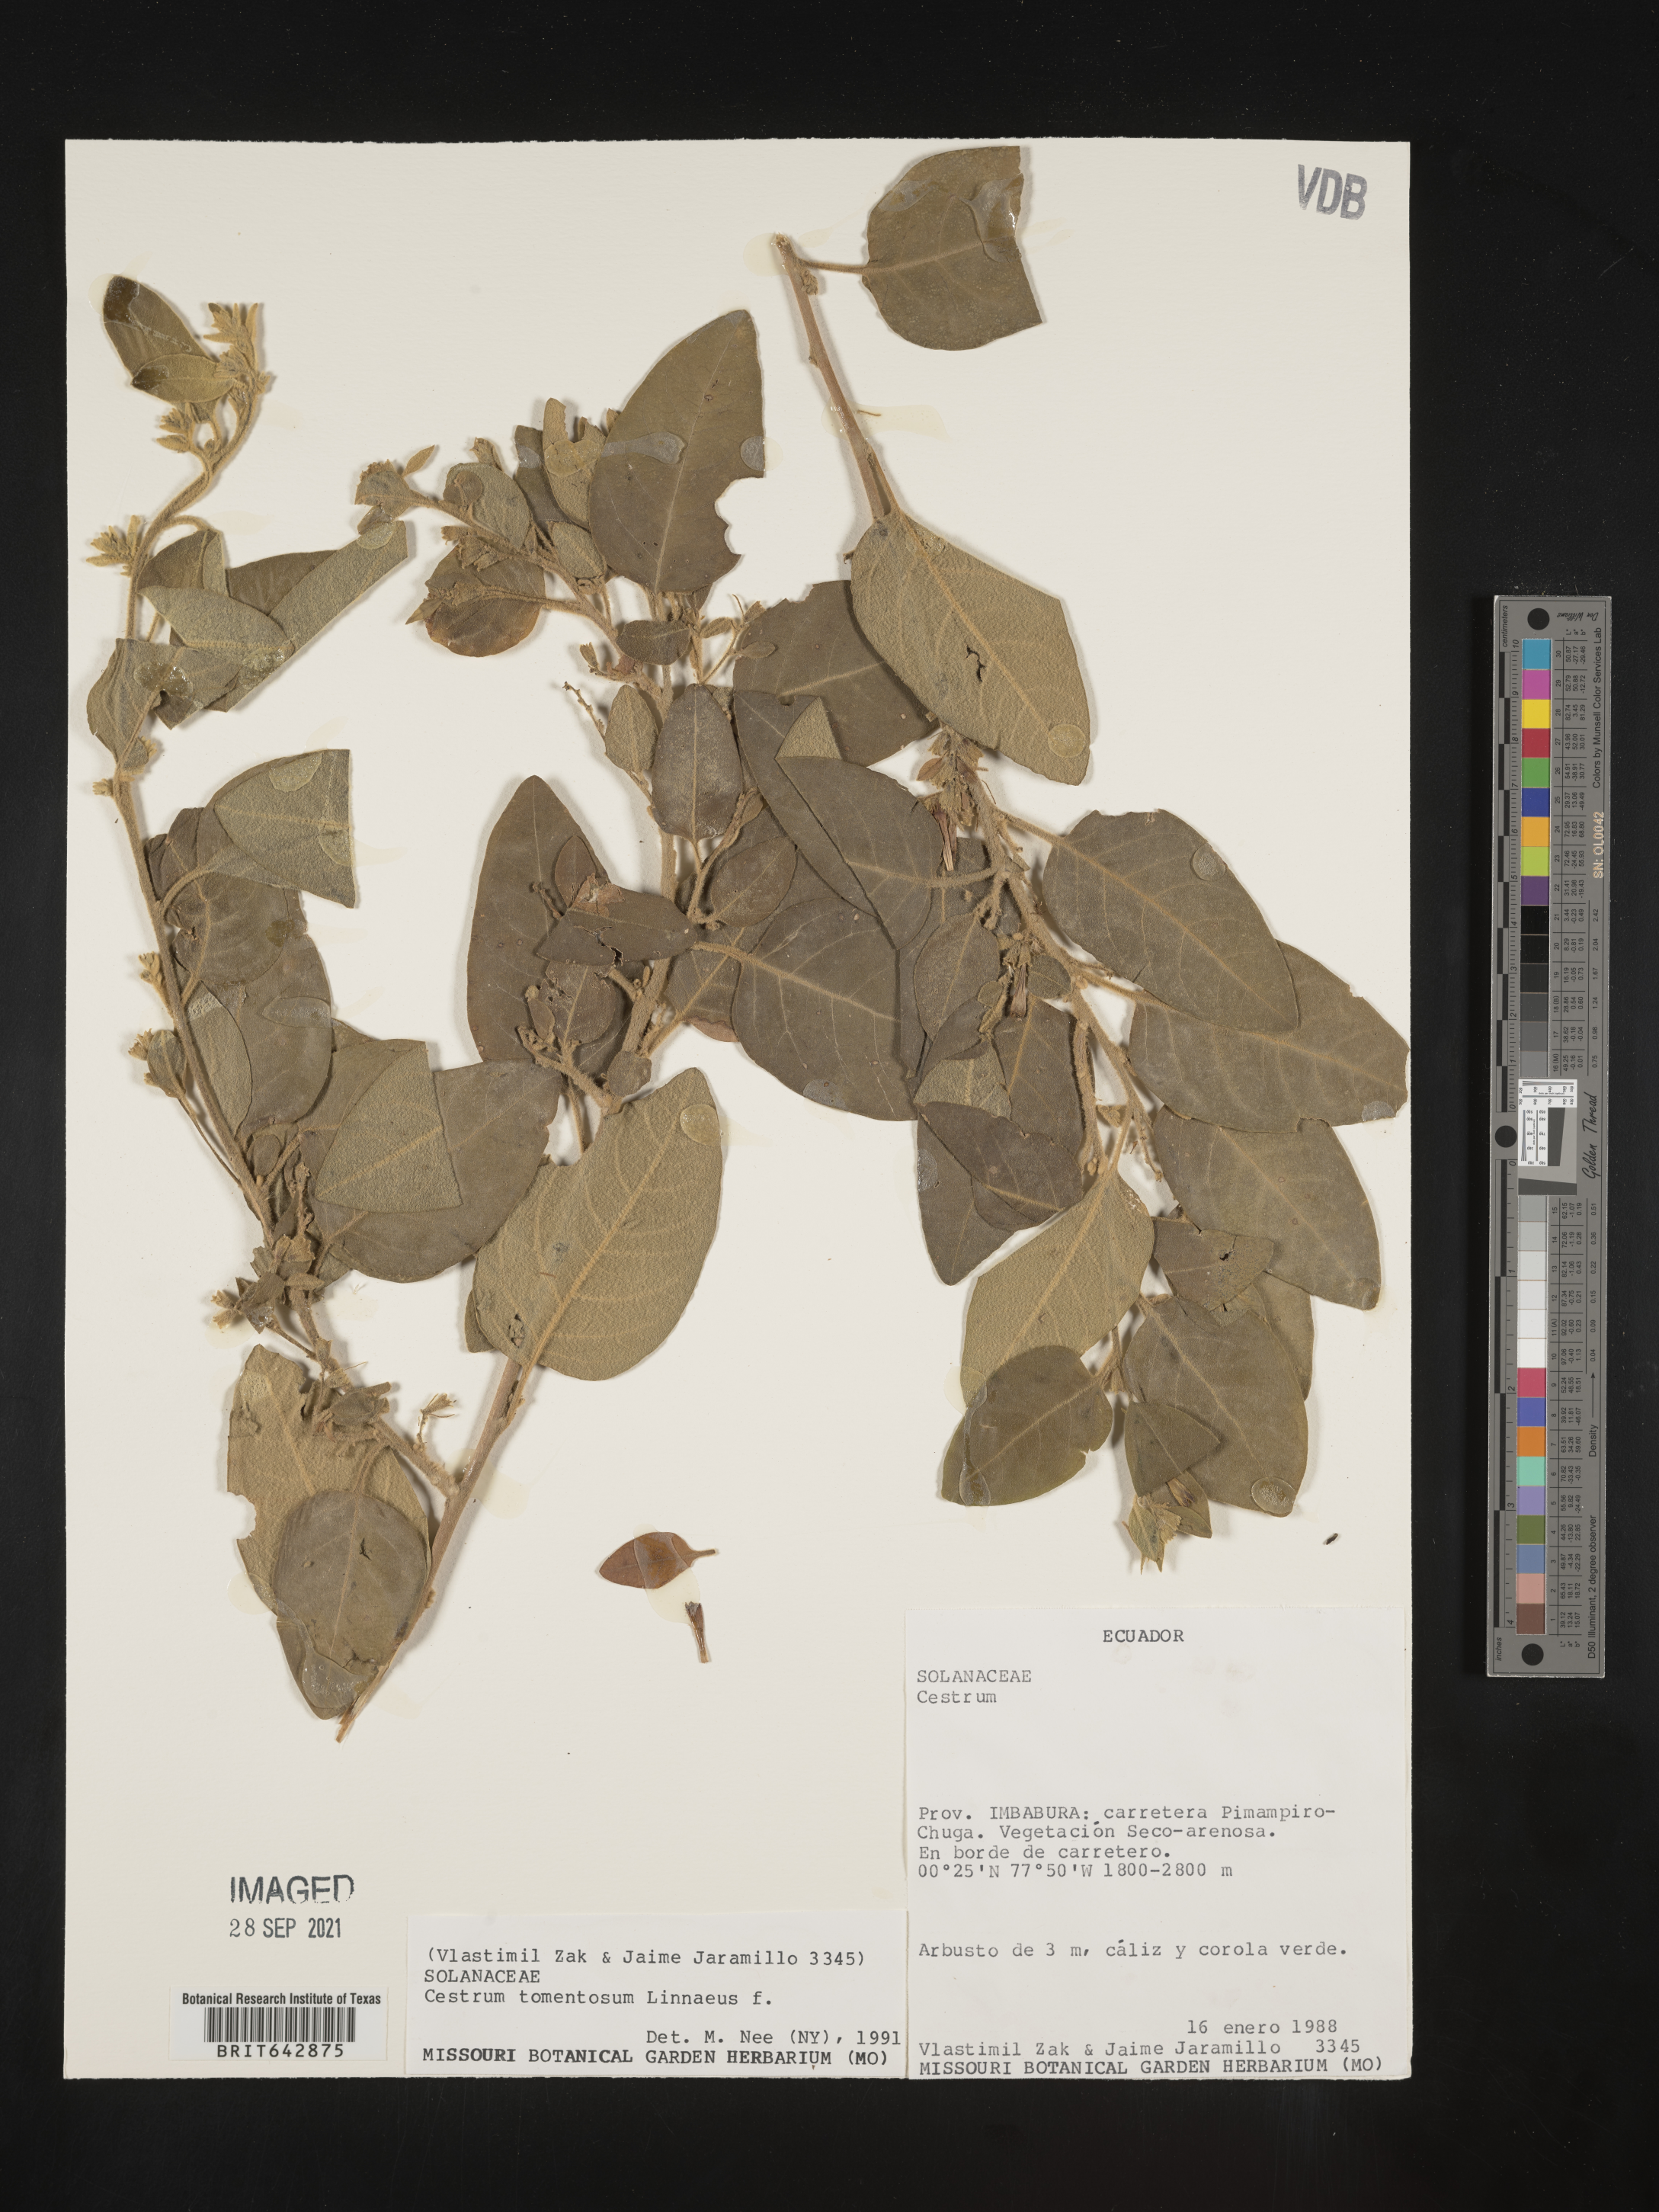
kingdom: Plantae
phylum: Tracheophyta
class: Magnoliopsida
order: Solanales
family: Solanaceae
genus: Cestrum
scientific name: Cestrum
